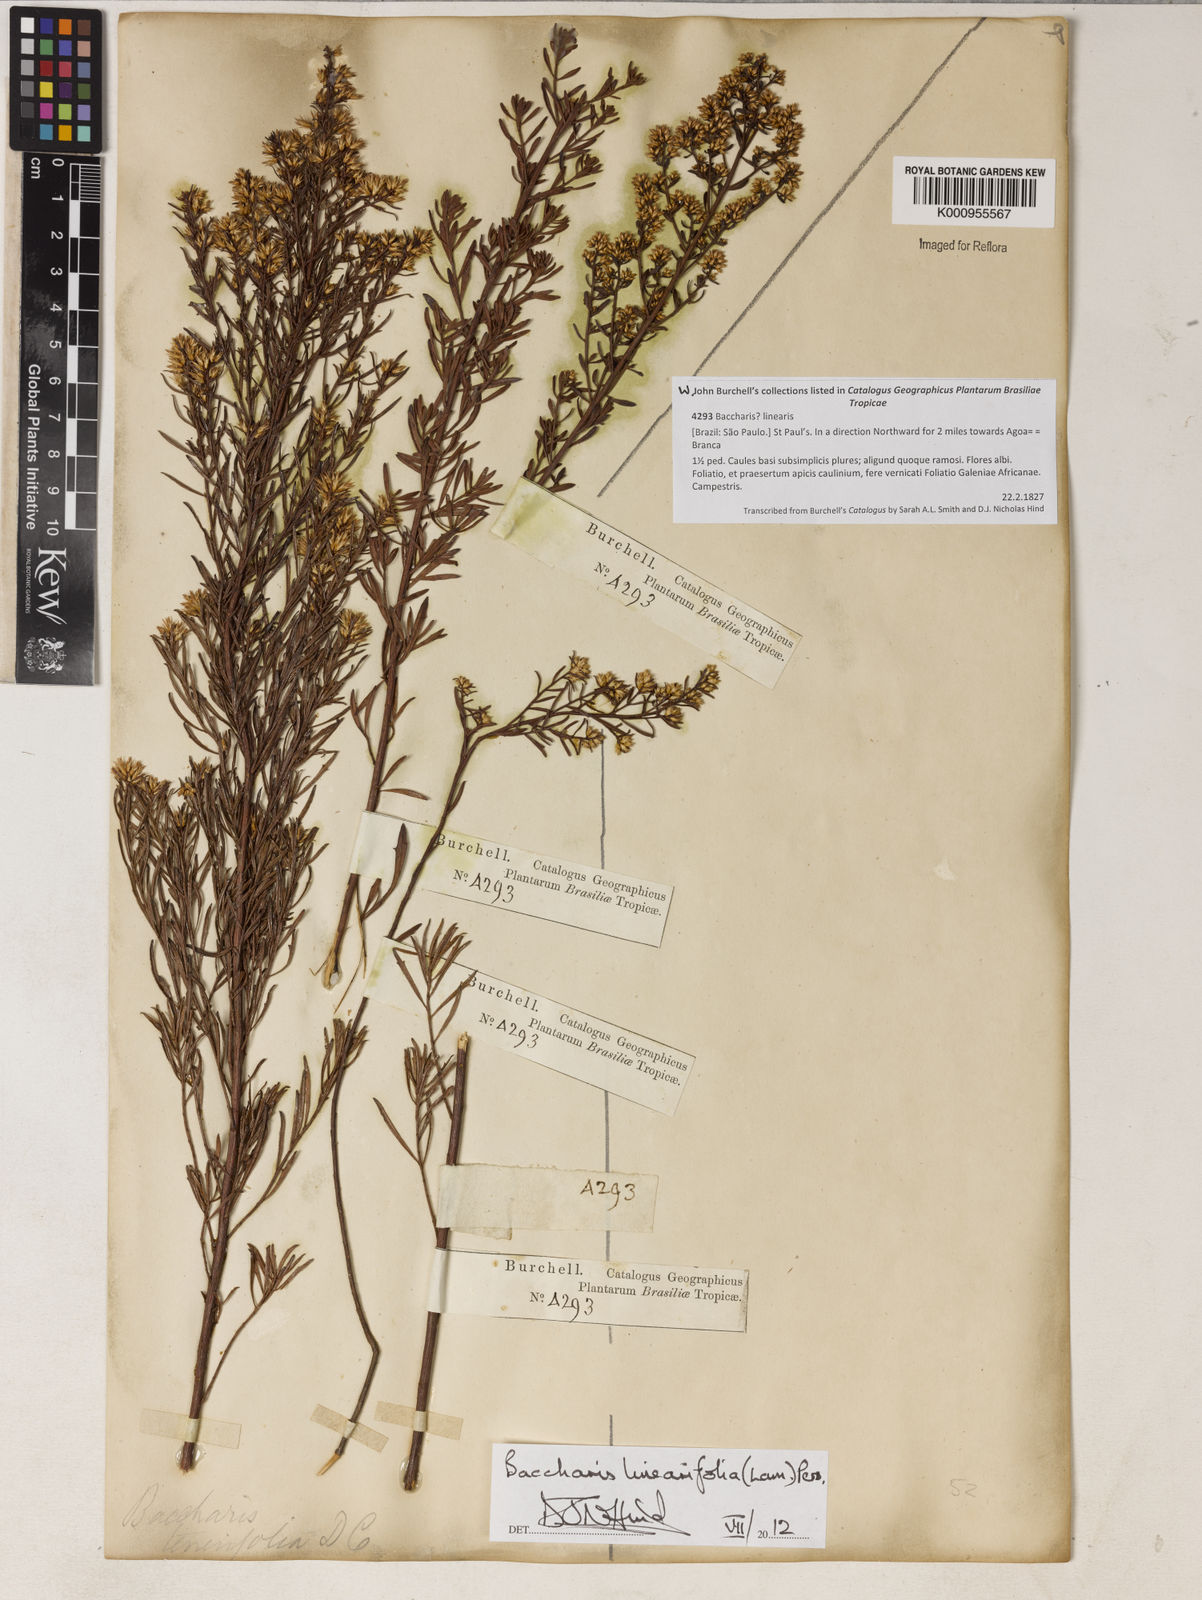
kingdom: Plantae
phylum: Tracheophyta
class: Magnoliopsida
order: Asterales
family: Asteraceae
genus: Baccharis
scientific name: Baccharis linearifolia
